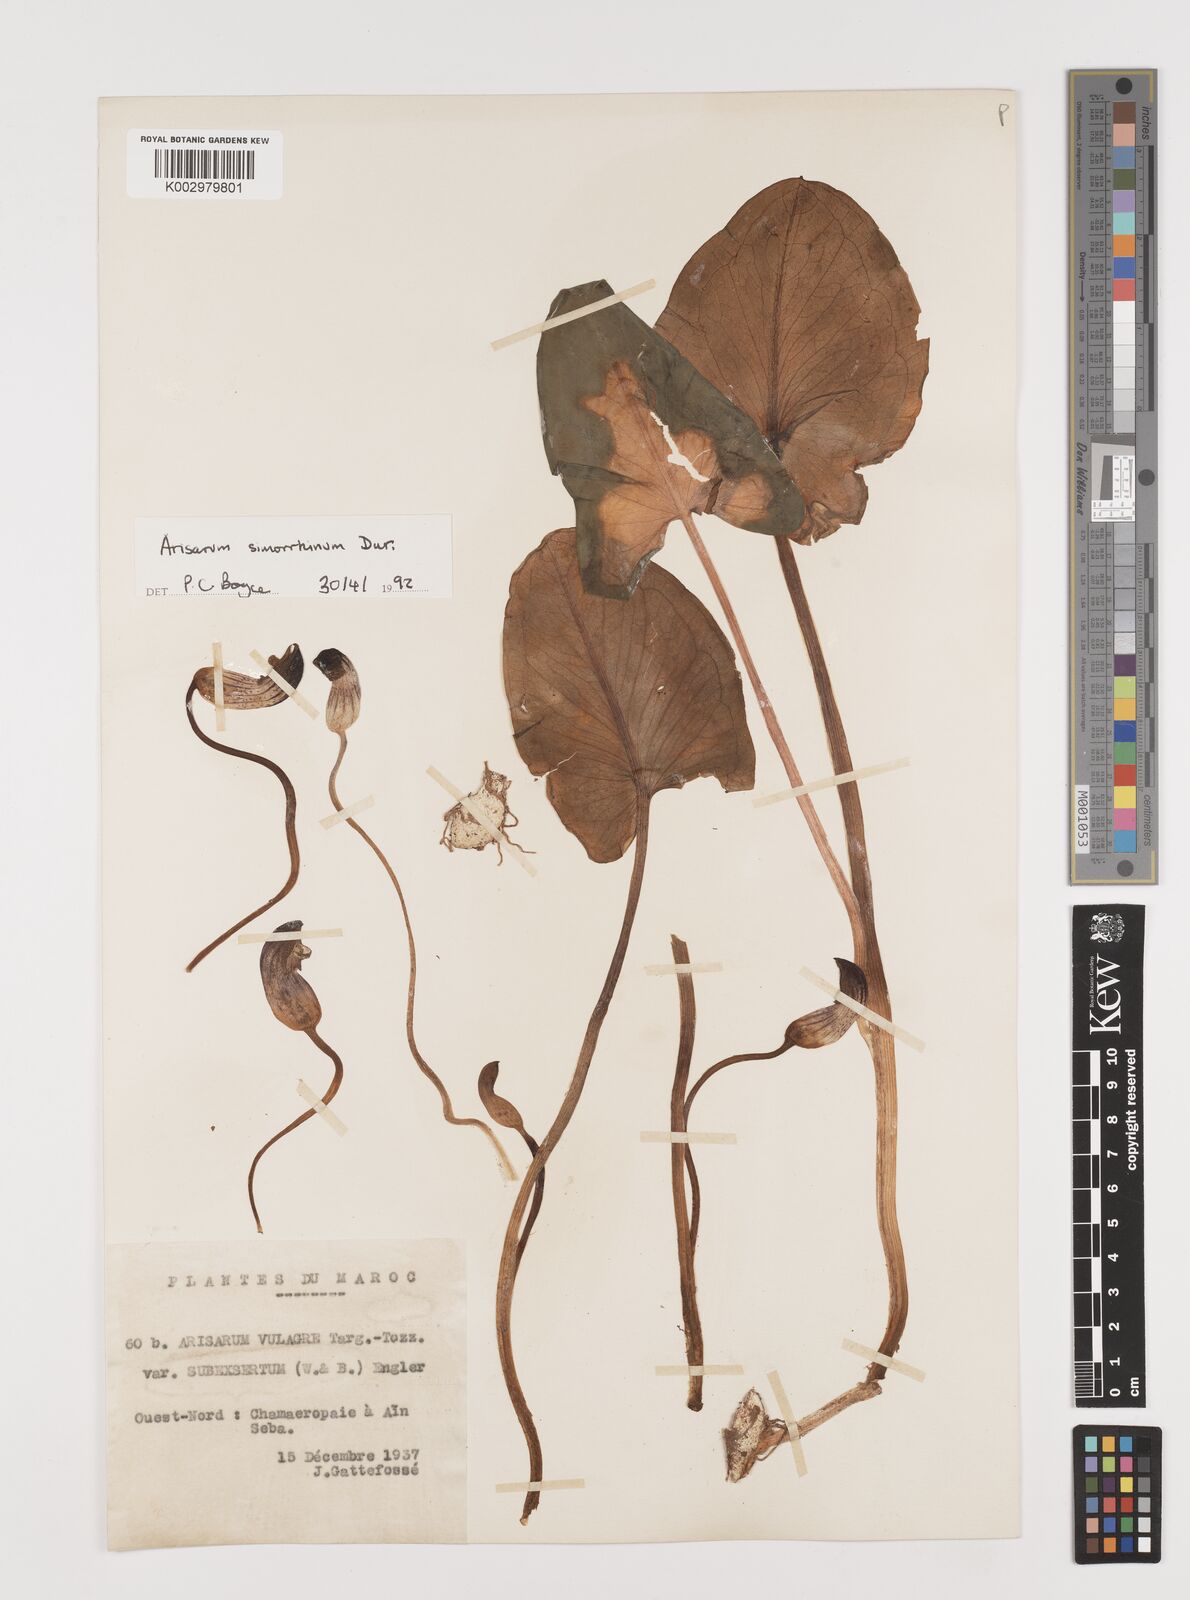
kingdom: Plantae
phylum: Tracheophyta
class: Liliopsida
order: Alismatales
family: Araceae
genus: Arisarum
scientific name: Arisarum simorrhinum
